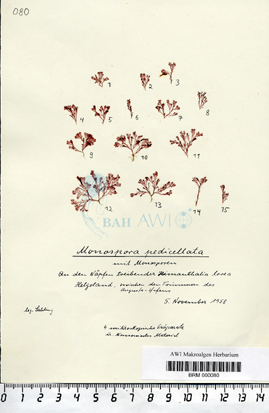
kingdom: Plantae
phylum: Rhodophyta
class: Florideophyceae
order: Ceramiales
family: Wrangeliaceae
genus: Monosporus
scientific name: Monosporus pedicellatus
